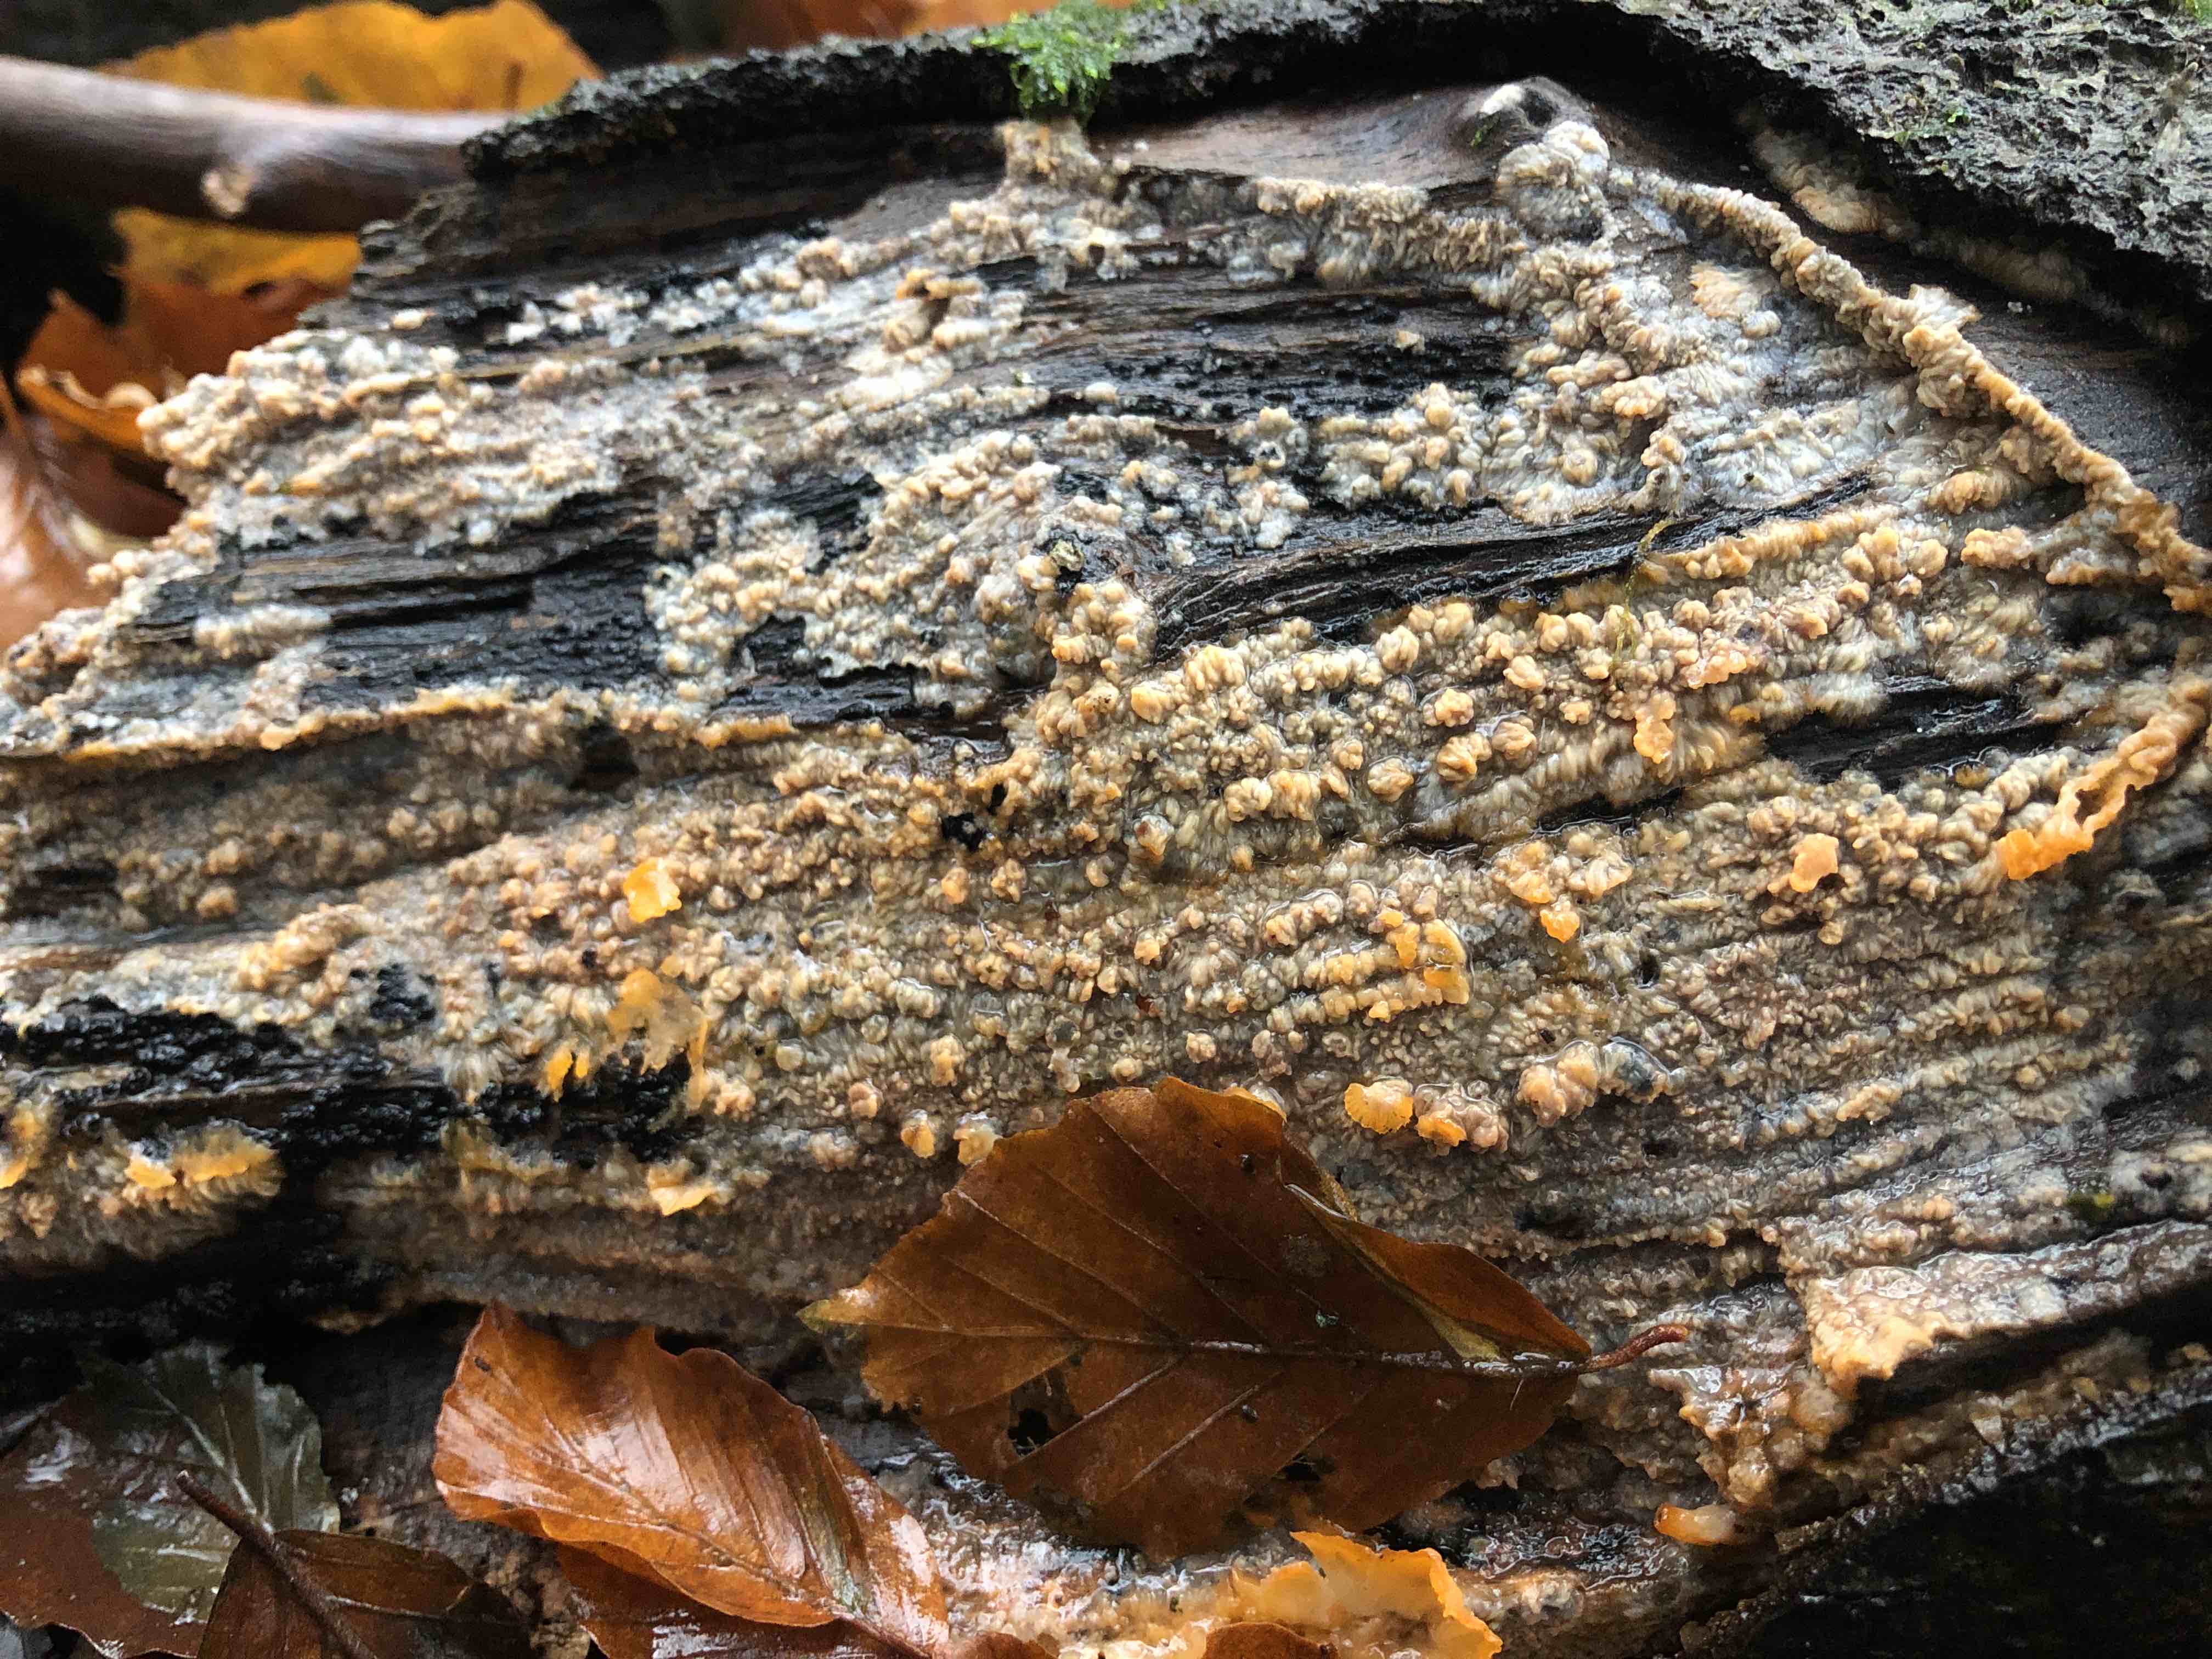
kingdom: Fungi
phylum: Basidiomycota
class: Agaricomycetes
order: Polyporales
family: Meruliaceae
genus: Phlebia
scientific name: Phlebia radiata
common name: stråle-åresvamp
